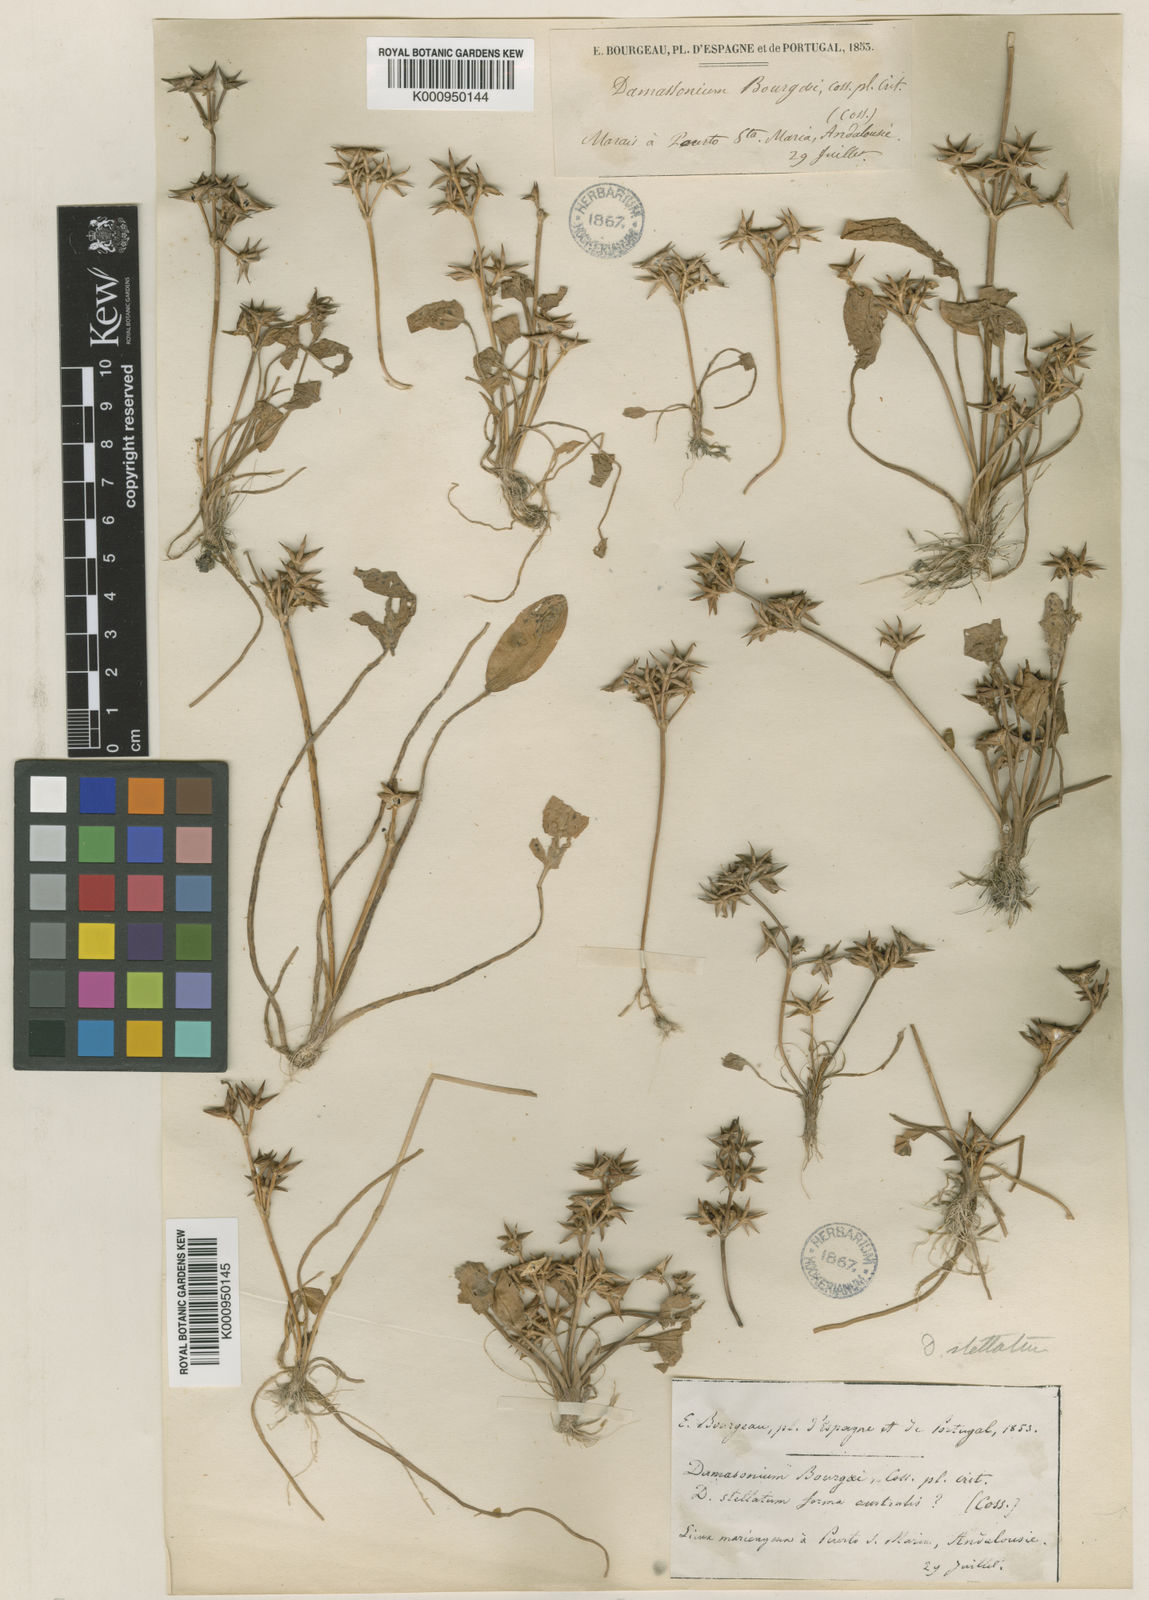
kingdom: Plantae
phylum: Tracheophyta
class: Liliopsida
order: Alismatales
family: Alismataceae
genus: Damasonium
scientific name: Damasonium bourgaei
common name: Starfruit
